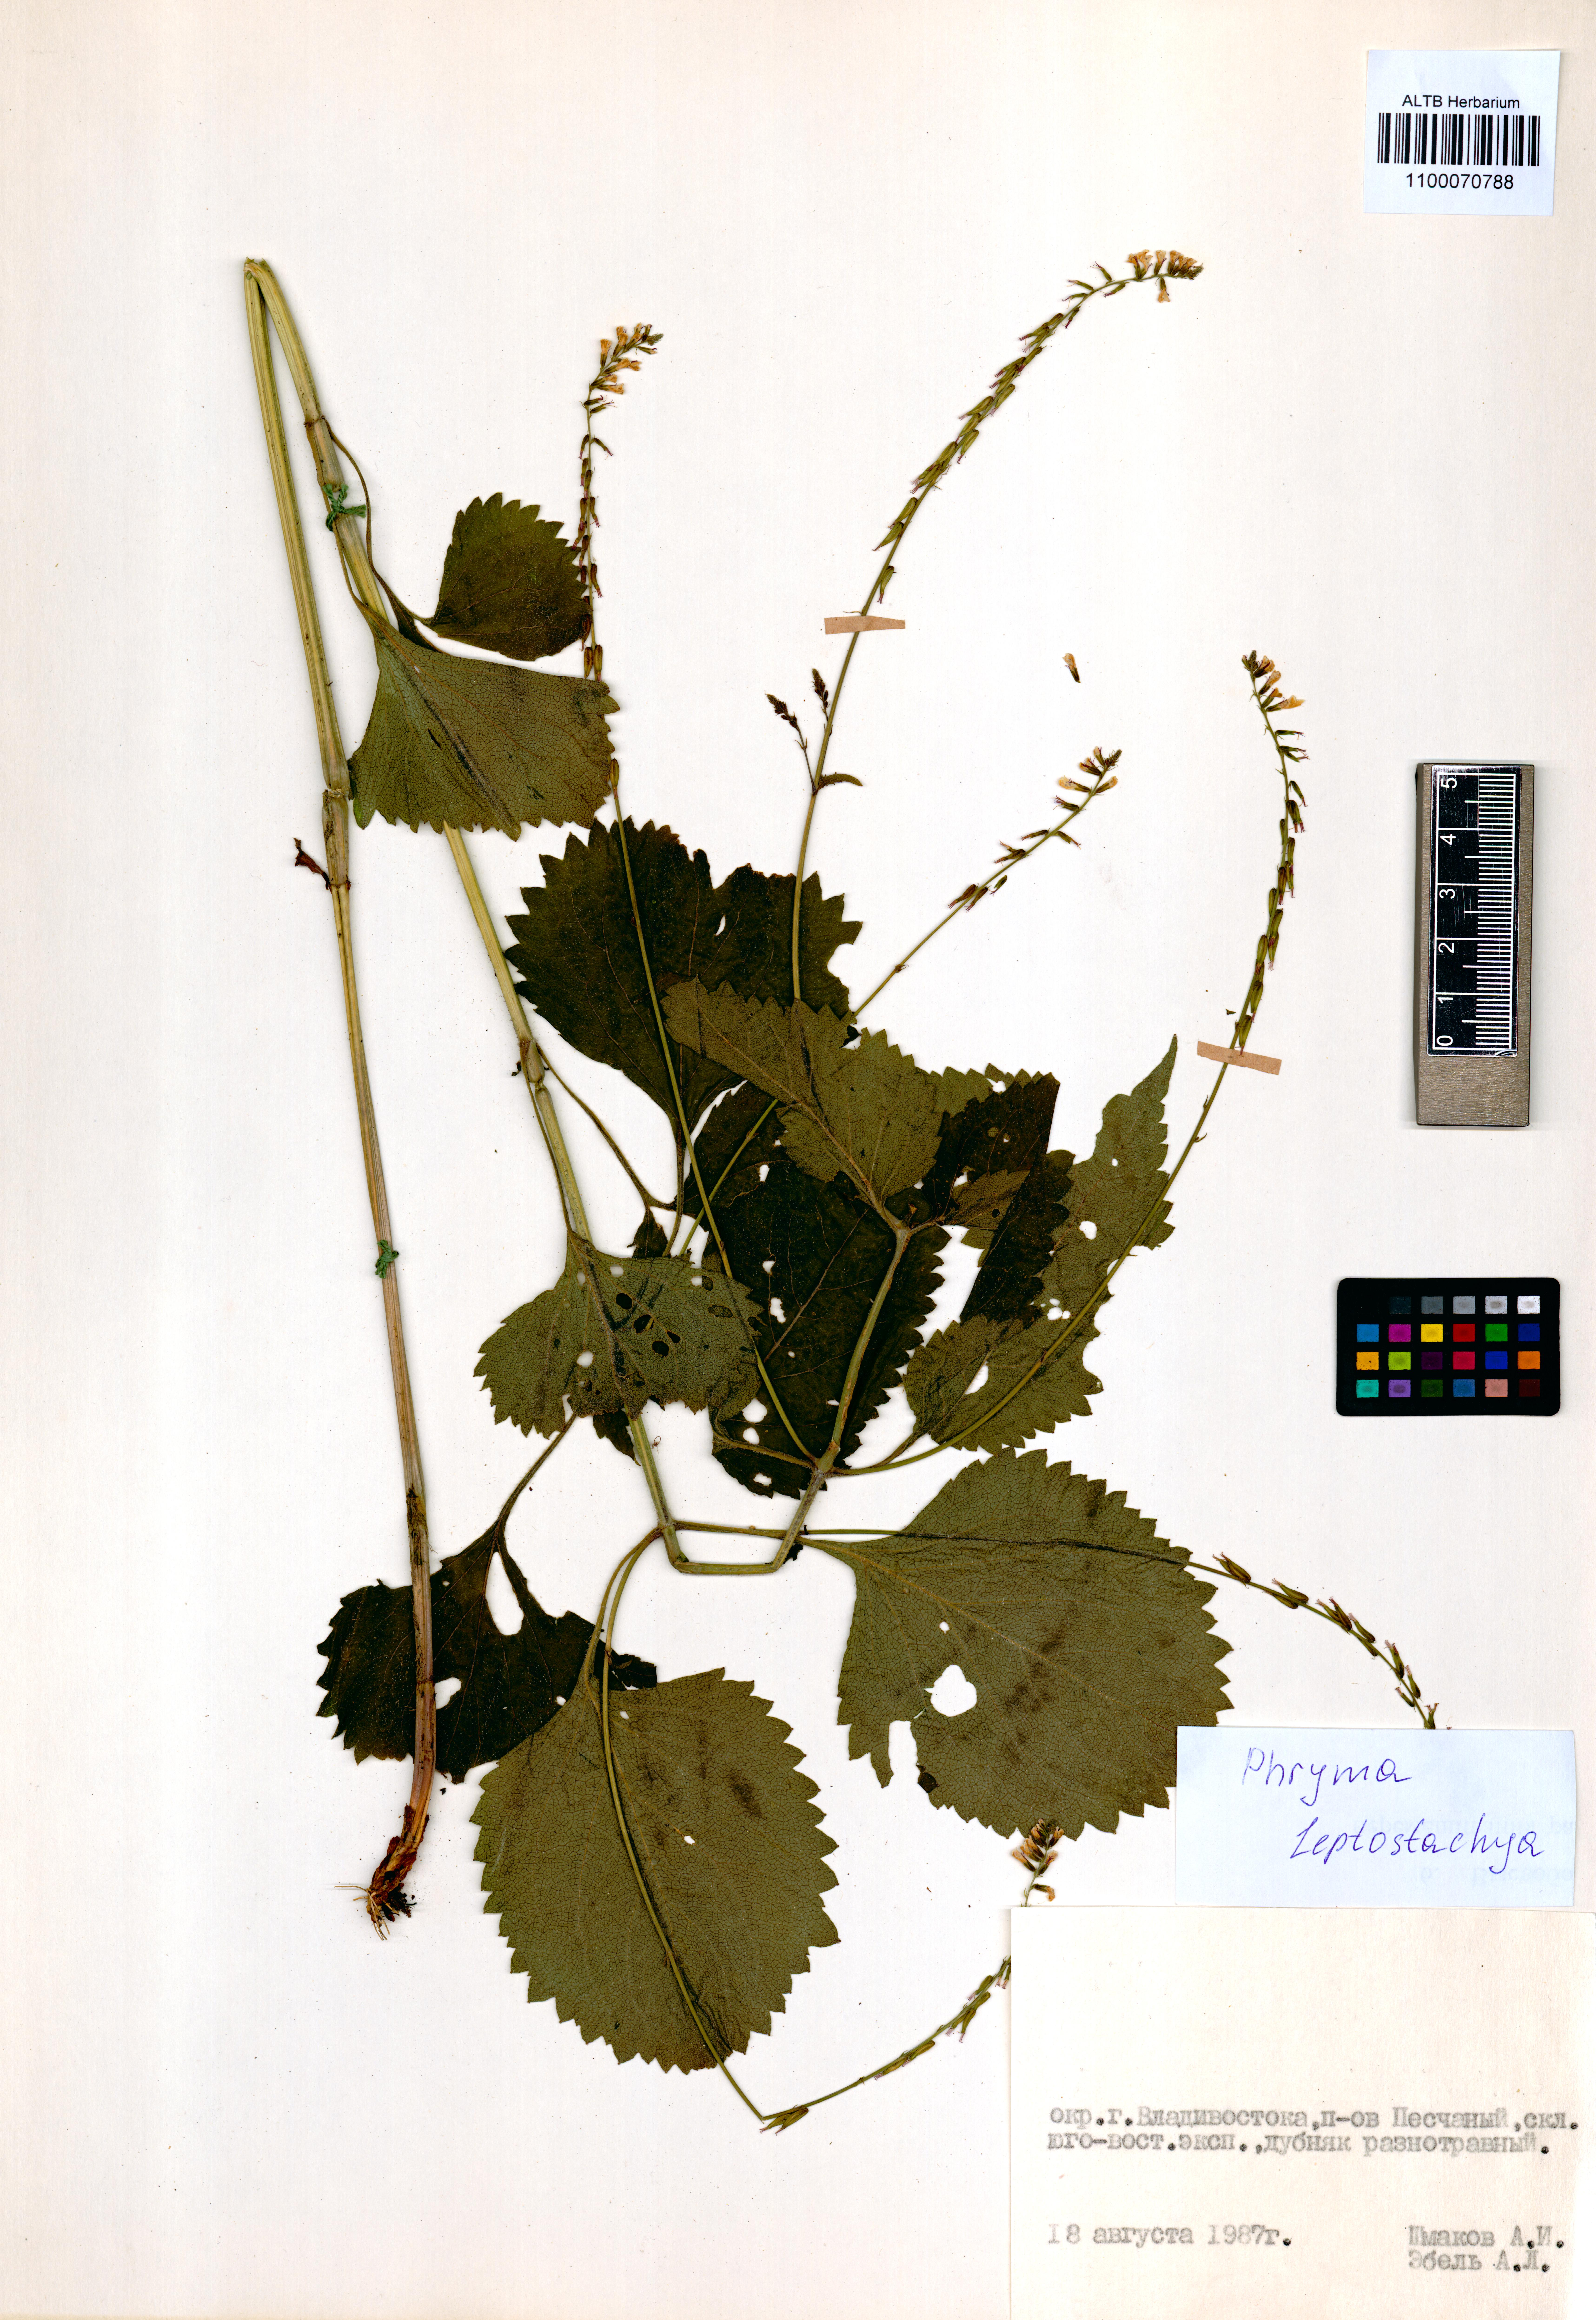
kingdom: Plantae
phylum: Tracheophyta
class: Magnoliopsida
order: Lamiales
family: Phrymaceae
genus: Phryma
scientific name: Phryma leptostachya
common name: American lopseed
